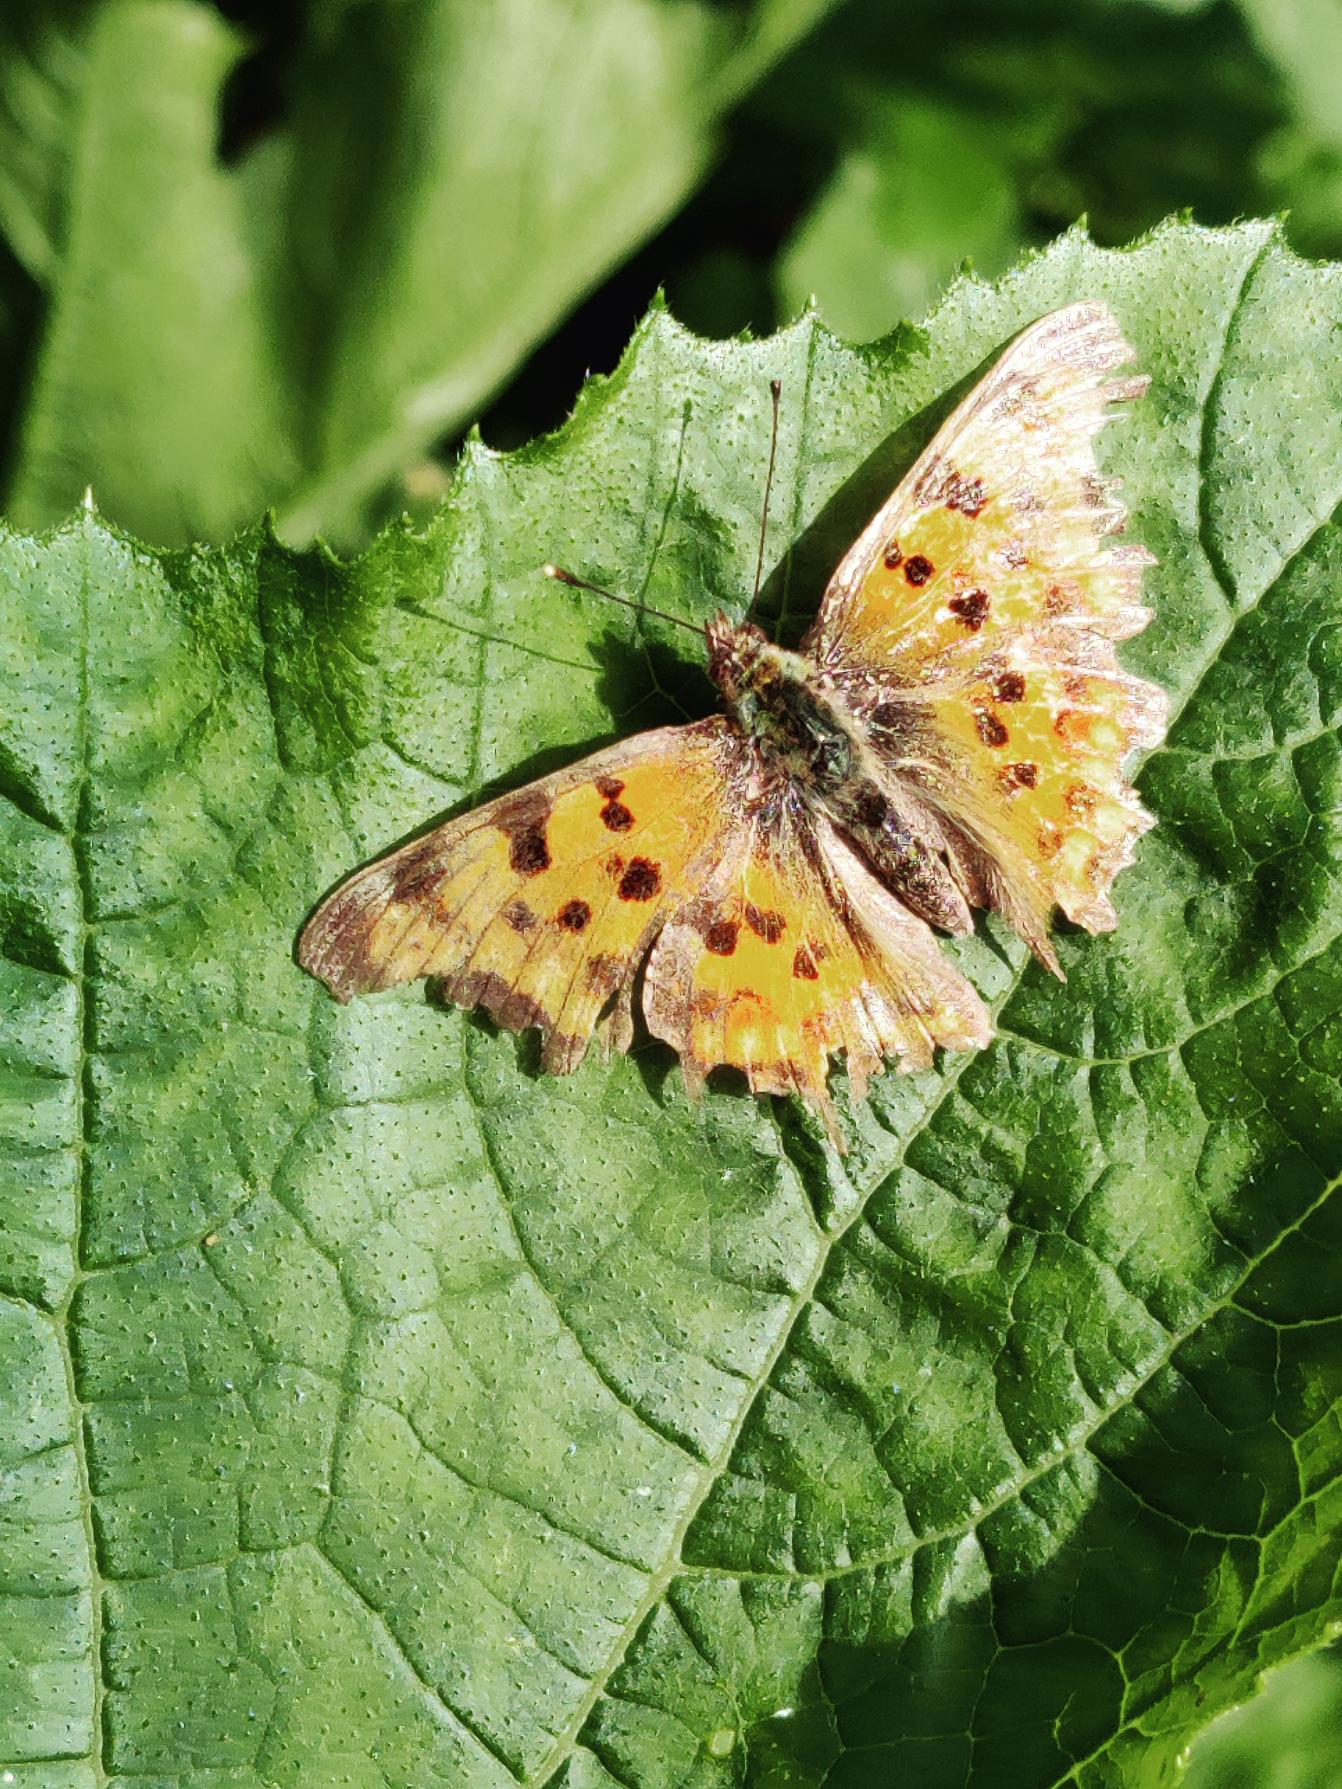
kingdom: Animalia
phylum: Arthropoda
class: Insecta
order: Lepidoptera
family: Nymphalidae
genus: Polygonia
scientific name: Polygonia c-album
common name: Det hvide C
